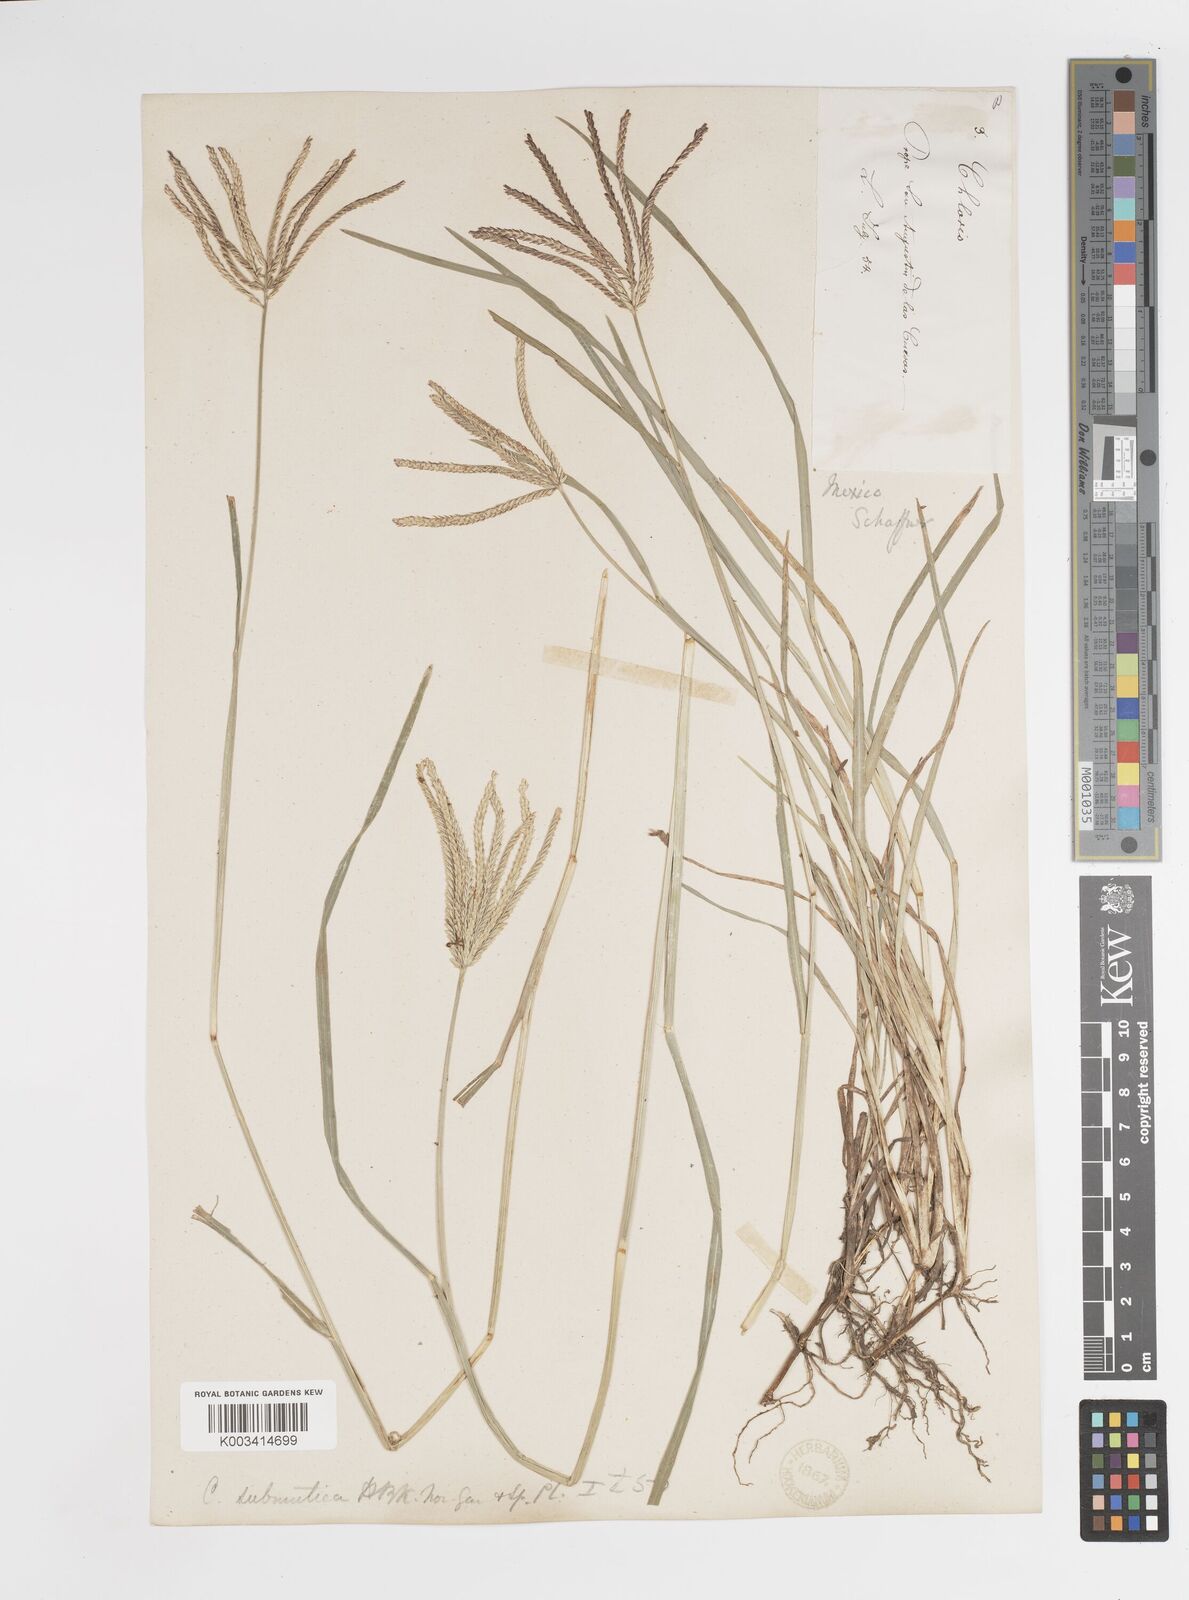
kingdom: Plantae
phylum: Tracheophyta
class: Liliopsida
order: Poales
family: Poaceae
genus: Chloris
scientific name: Chloris submutica
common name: Mexican windmill grass
